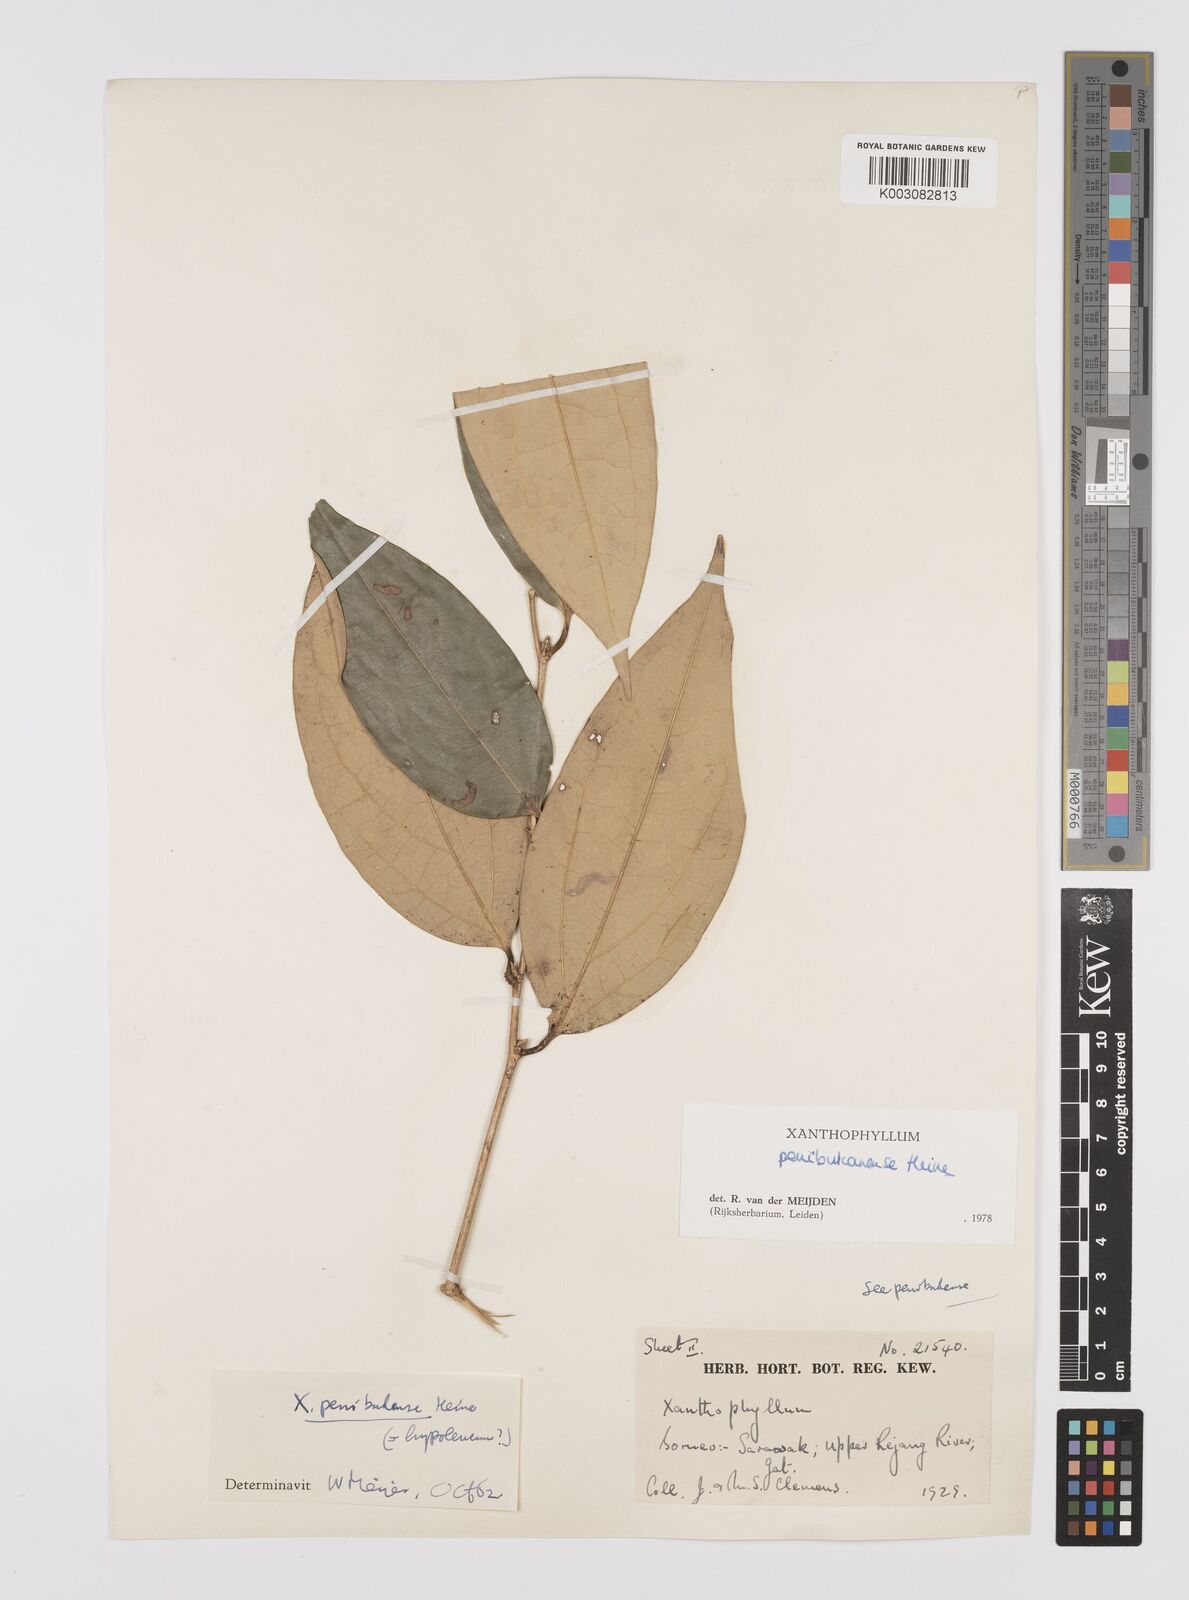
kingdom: Plantae
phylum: Tracheophyta
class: Magnoliopsida
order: Fabales
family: Polygalaceae
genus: Xanthophyllum
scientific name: Xanthophyllum penibukanense
